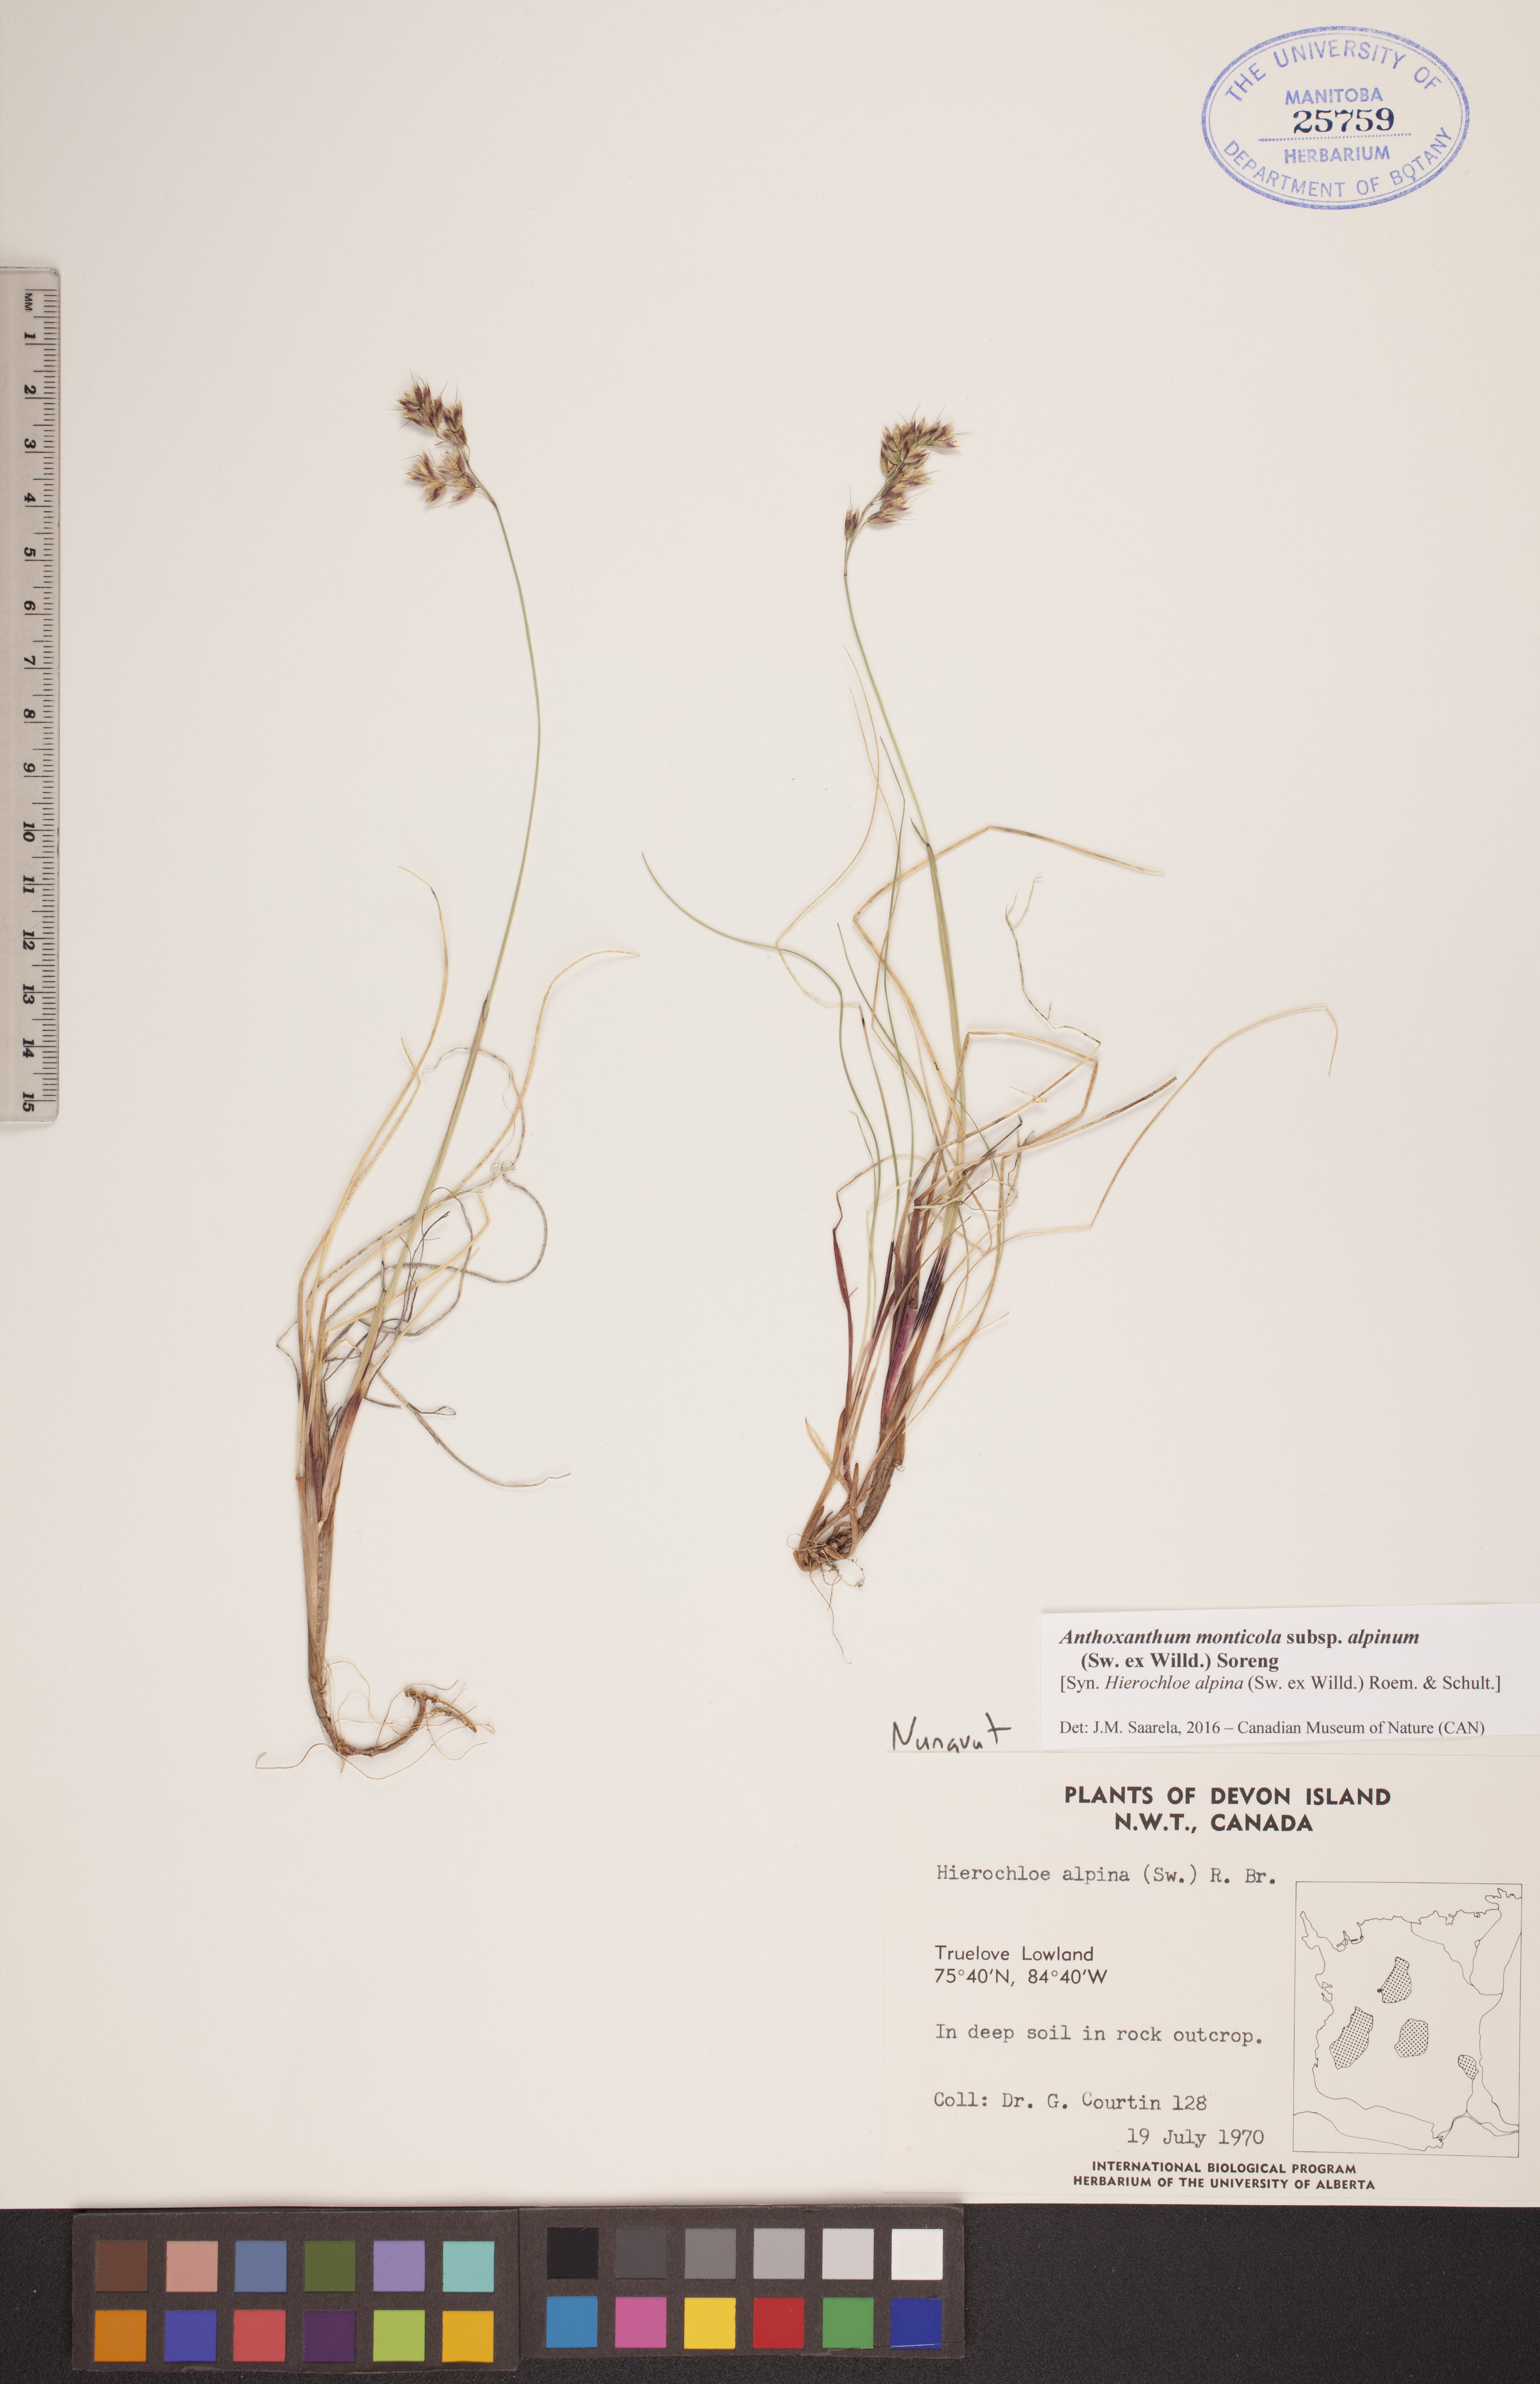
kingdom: Plantae
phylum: Tracheophyta
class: Liliopsida
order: Poales
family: Poaceae
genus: Anthoxanthum
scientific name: Anthoxanthum monticola
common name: Alpine sweetgrass
